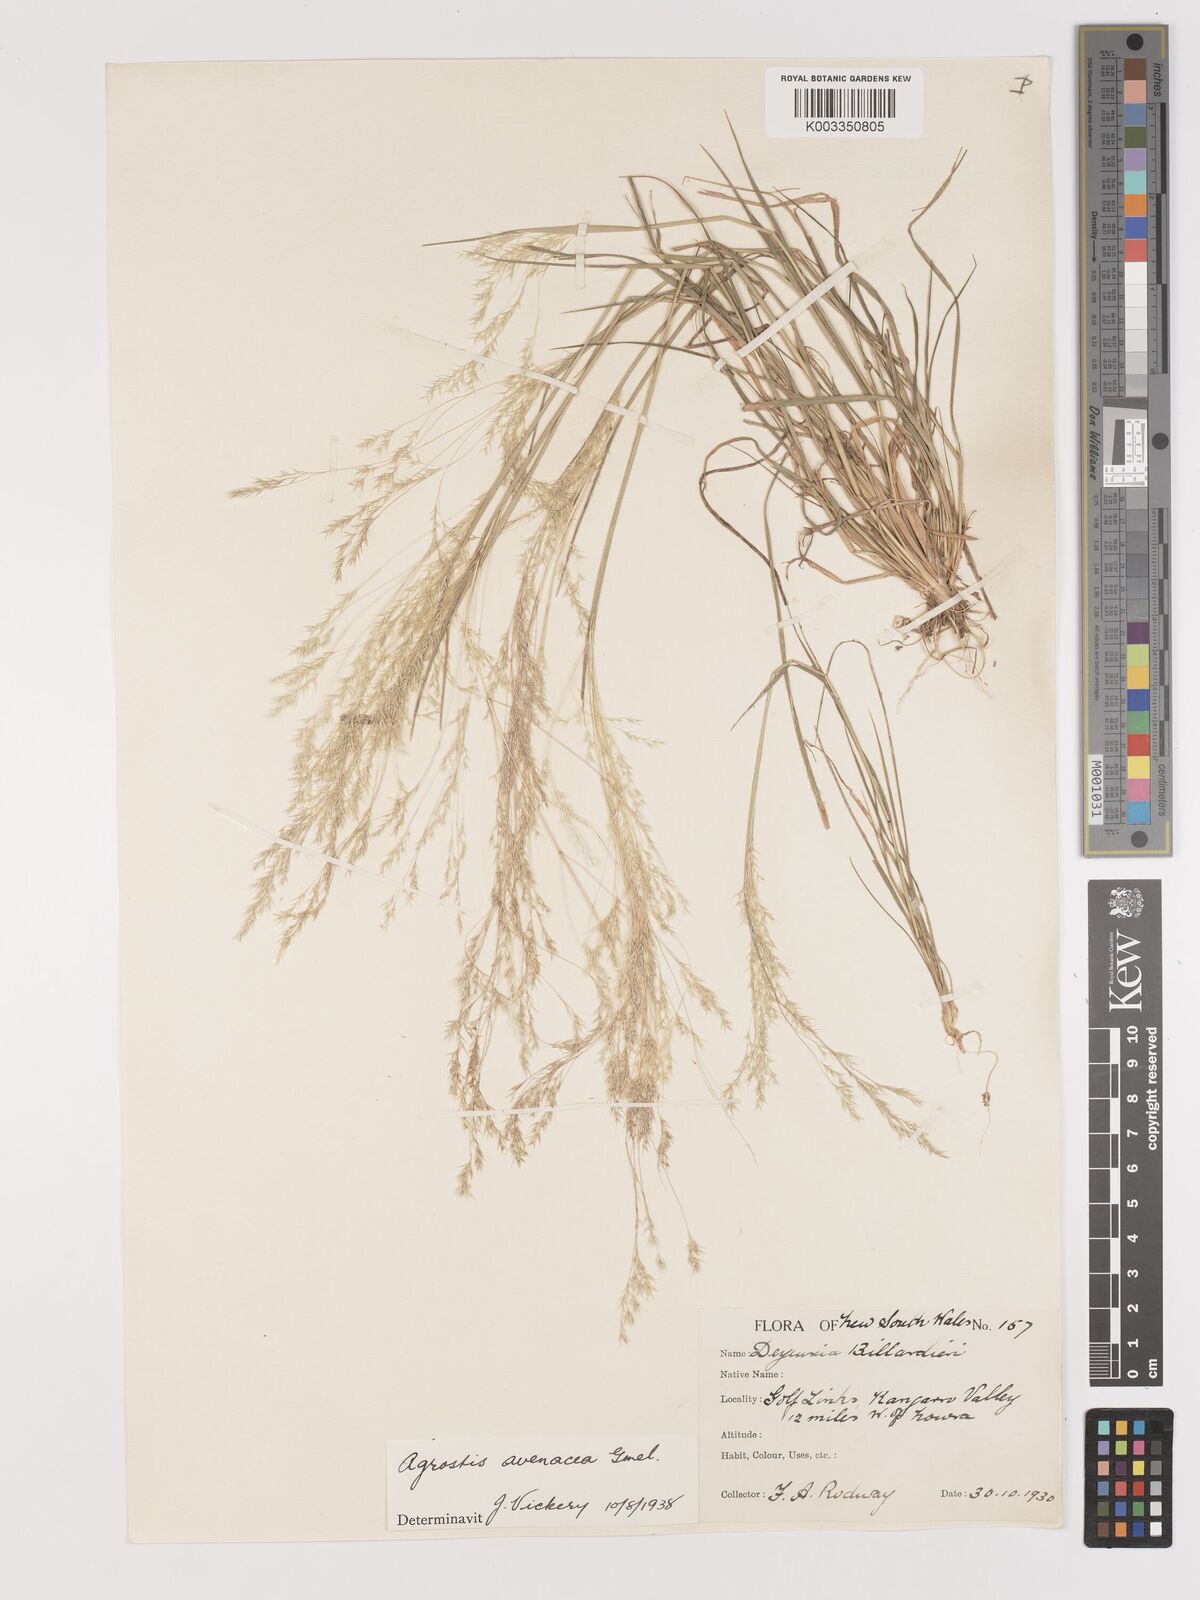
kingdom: Plantae
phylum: Tracheophyta
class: Liliopsida
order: Poales
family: Poaceae
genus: Lachnagrostis
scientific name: Lachnagrostis filiformis
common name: Bentgrass
